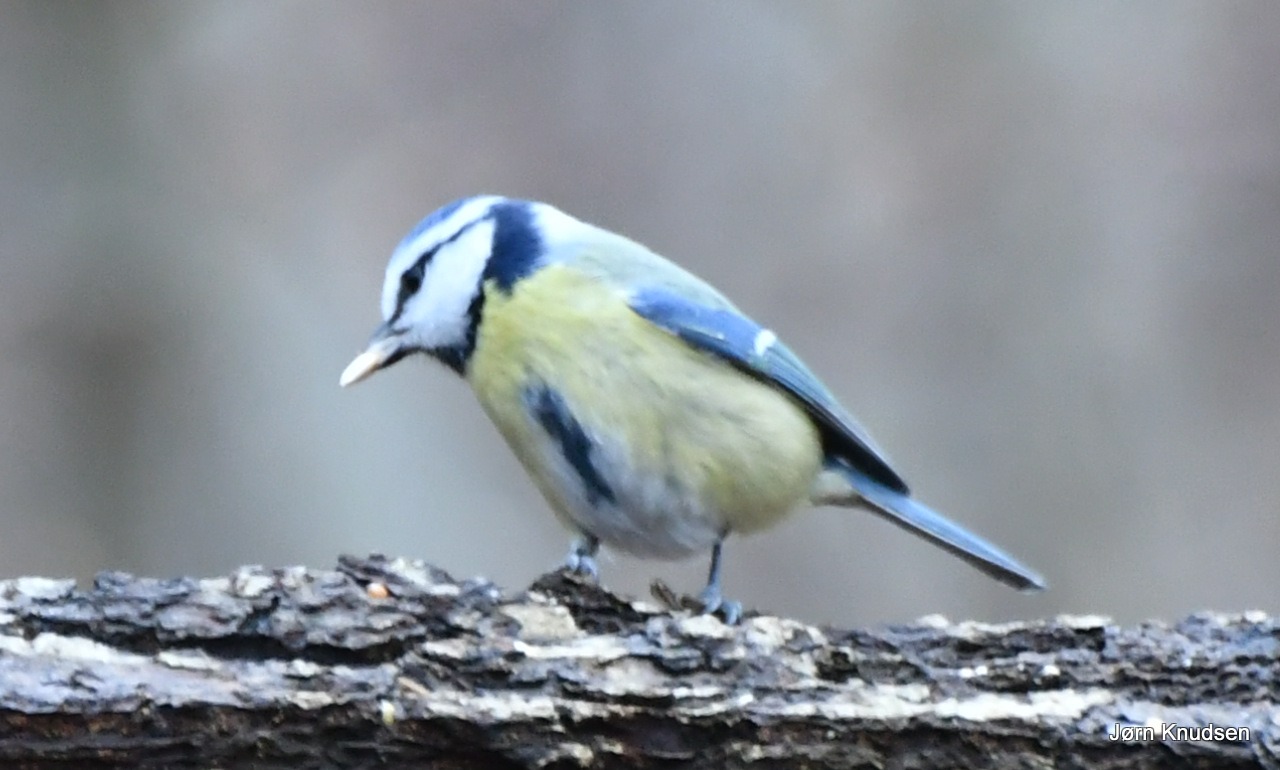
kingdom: Animalia
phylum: Chordata
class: Aves
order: Passeriformes
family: Paridae
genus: Cyanistes
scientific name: Cyanistes caeruleus
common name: Blåmejse
